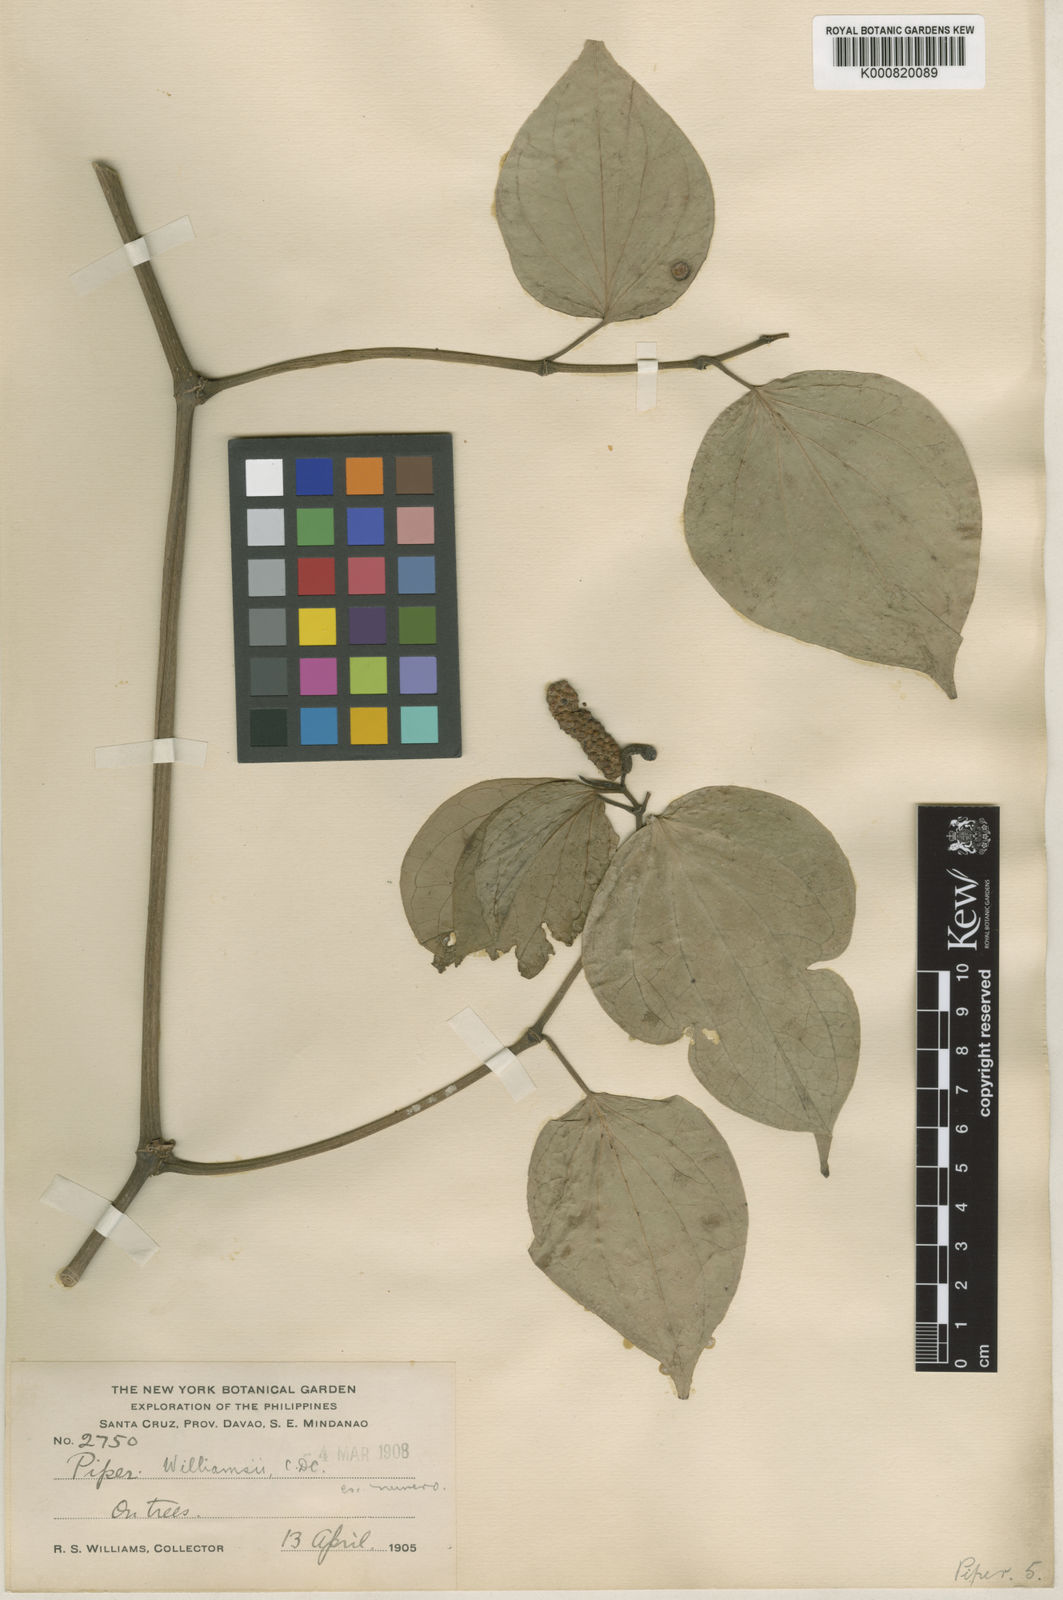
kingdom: Plantae
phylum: Tracheophyta
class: Magnoliopsida
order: Piperales
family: Piperaceae
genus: Piper
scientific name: Piper sibulanum
